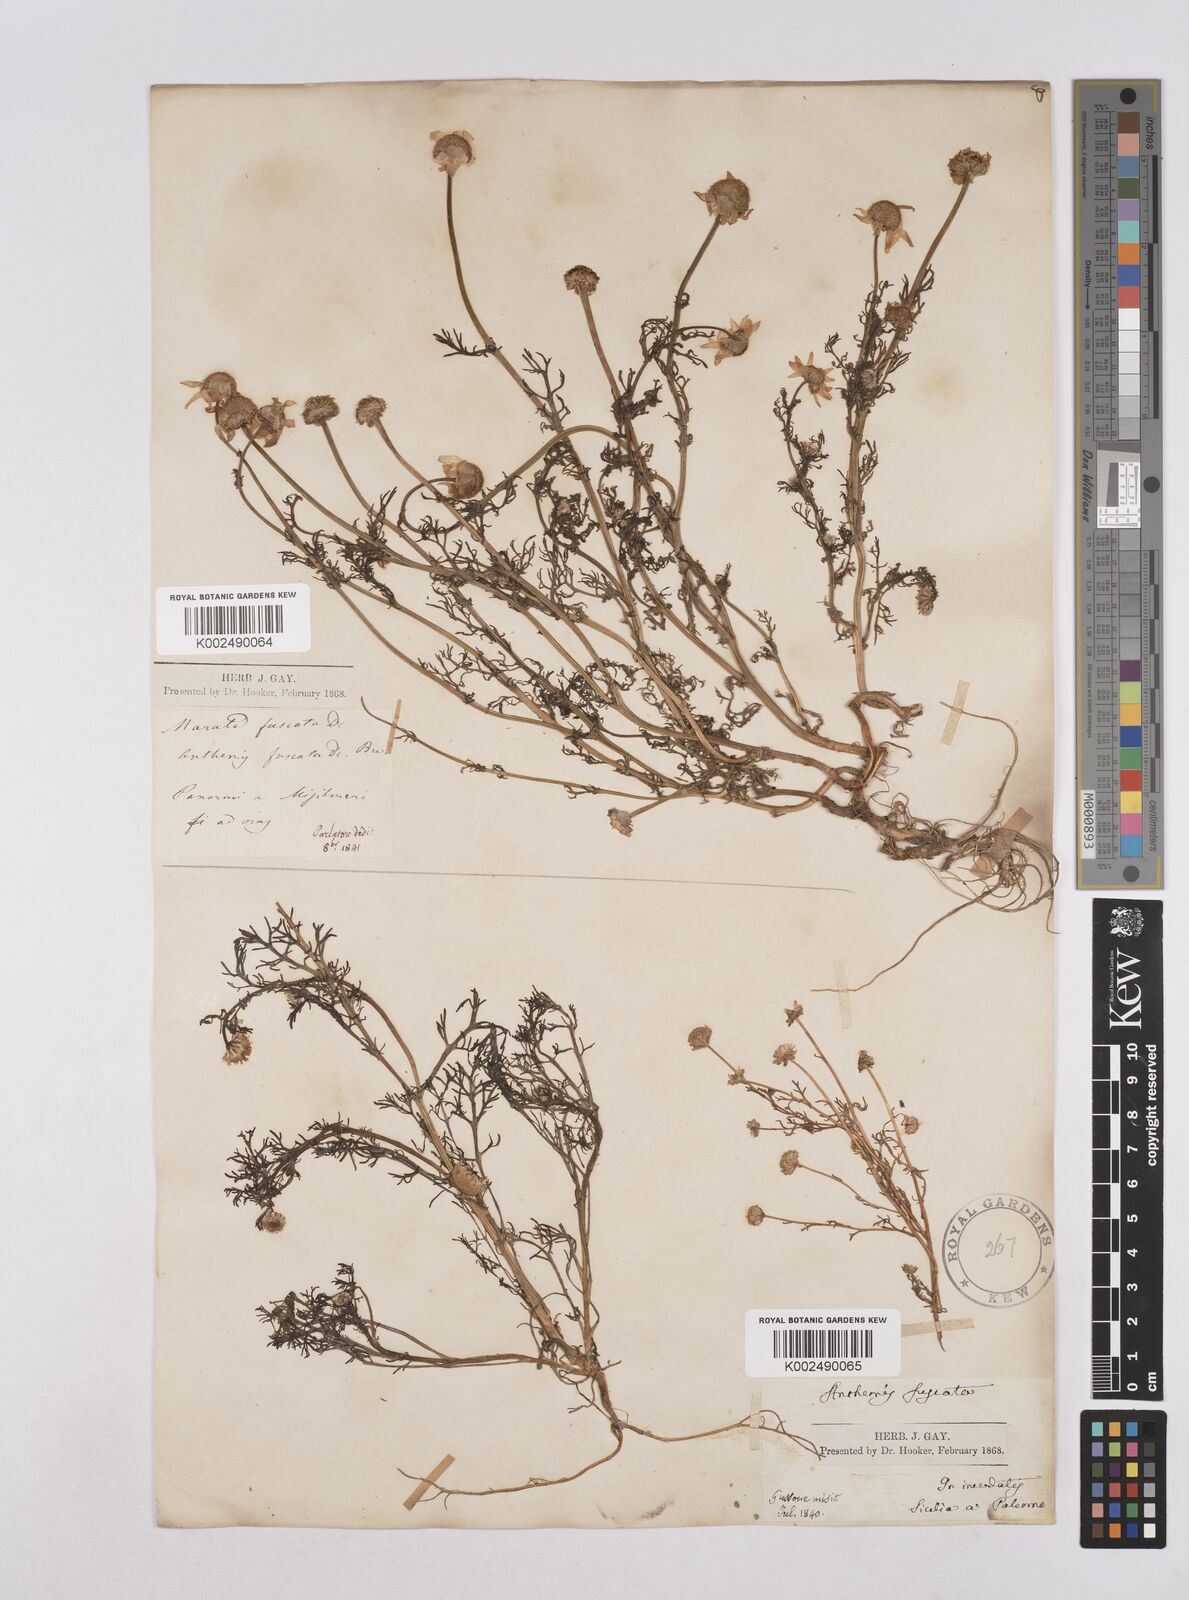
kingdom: Plantae
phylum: Tracheophyta
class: Magnoliopsida
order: Asterales
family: Asteraceae
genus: Chamaemelum
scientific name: Chamaemelum fuscatum
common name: Chamomile
